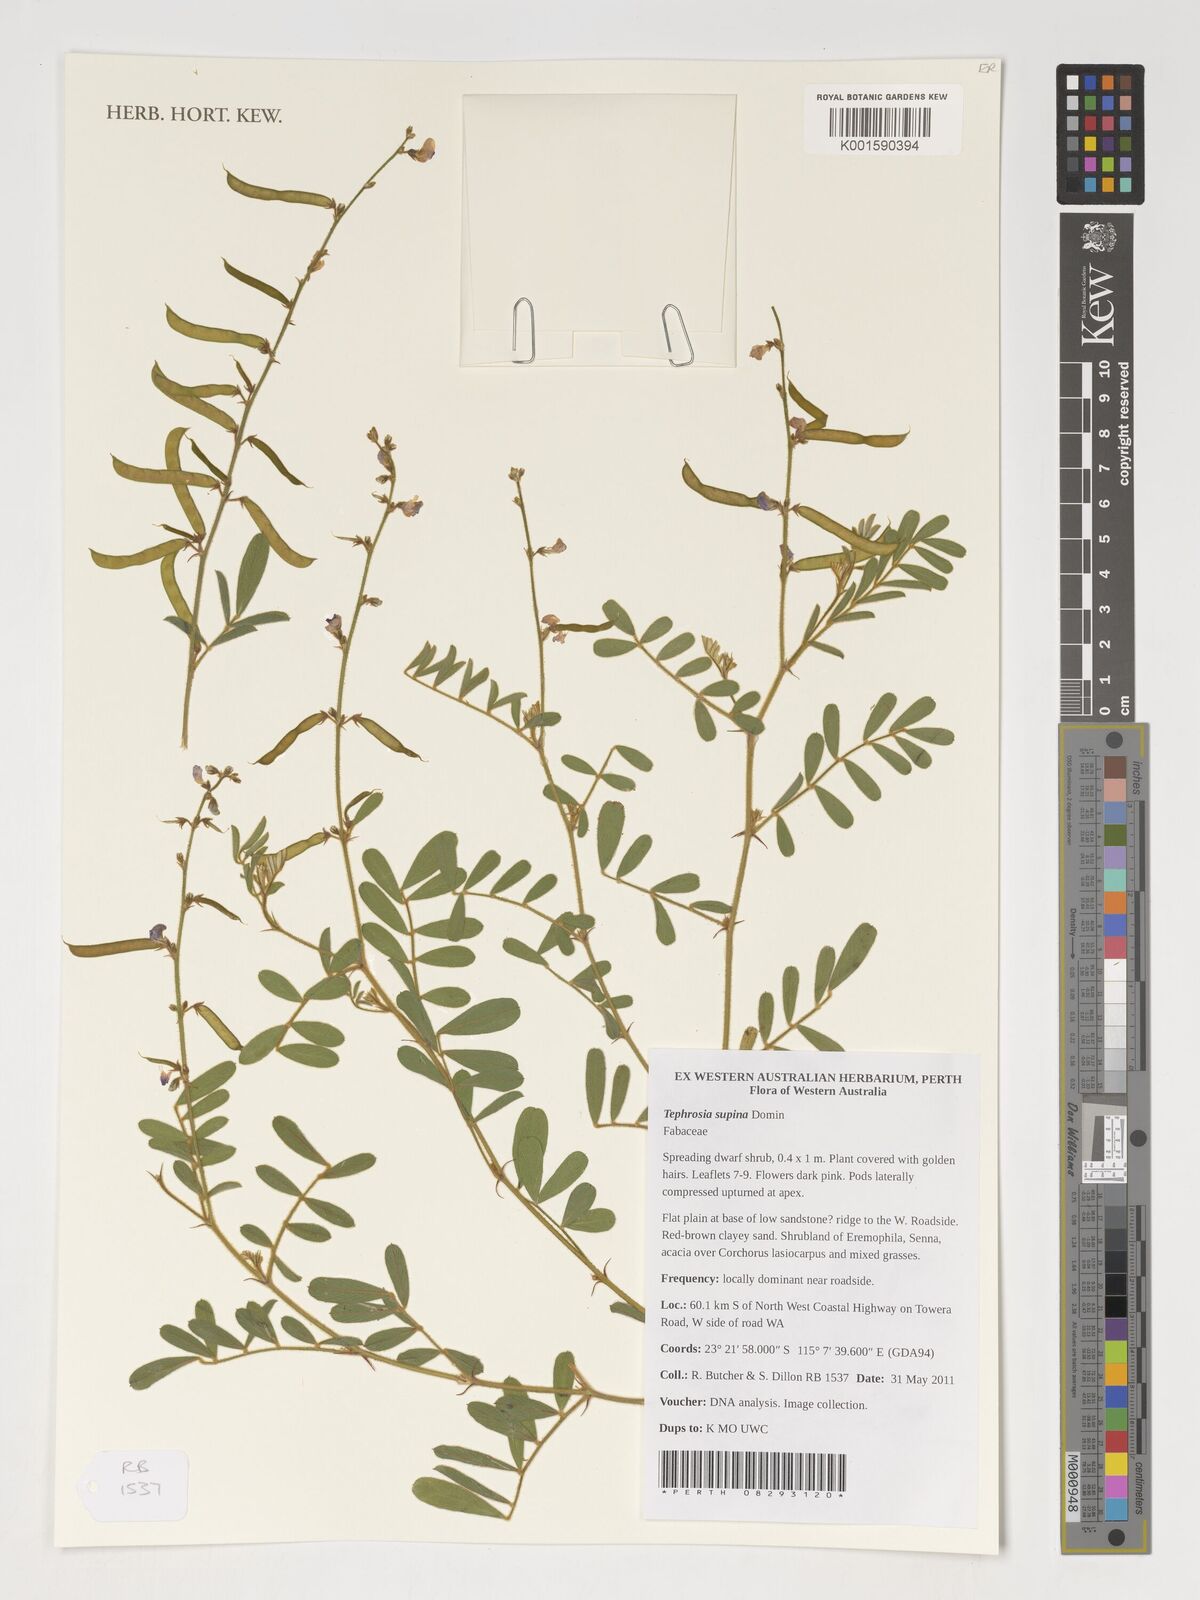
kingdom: Plantae
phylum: Tracheophyta
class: Magnoliopsida
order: Fabales
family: Fabaceae
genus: Tephrosia
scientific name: Tephrosia supina
